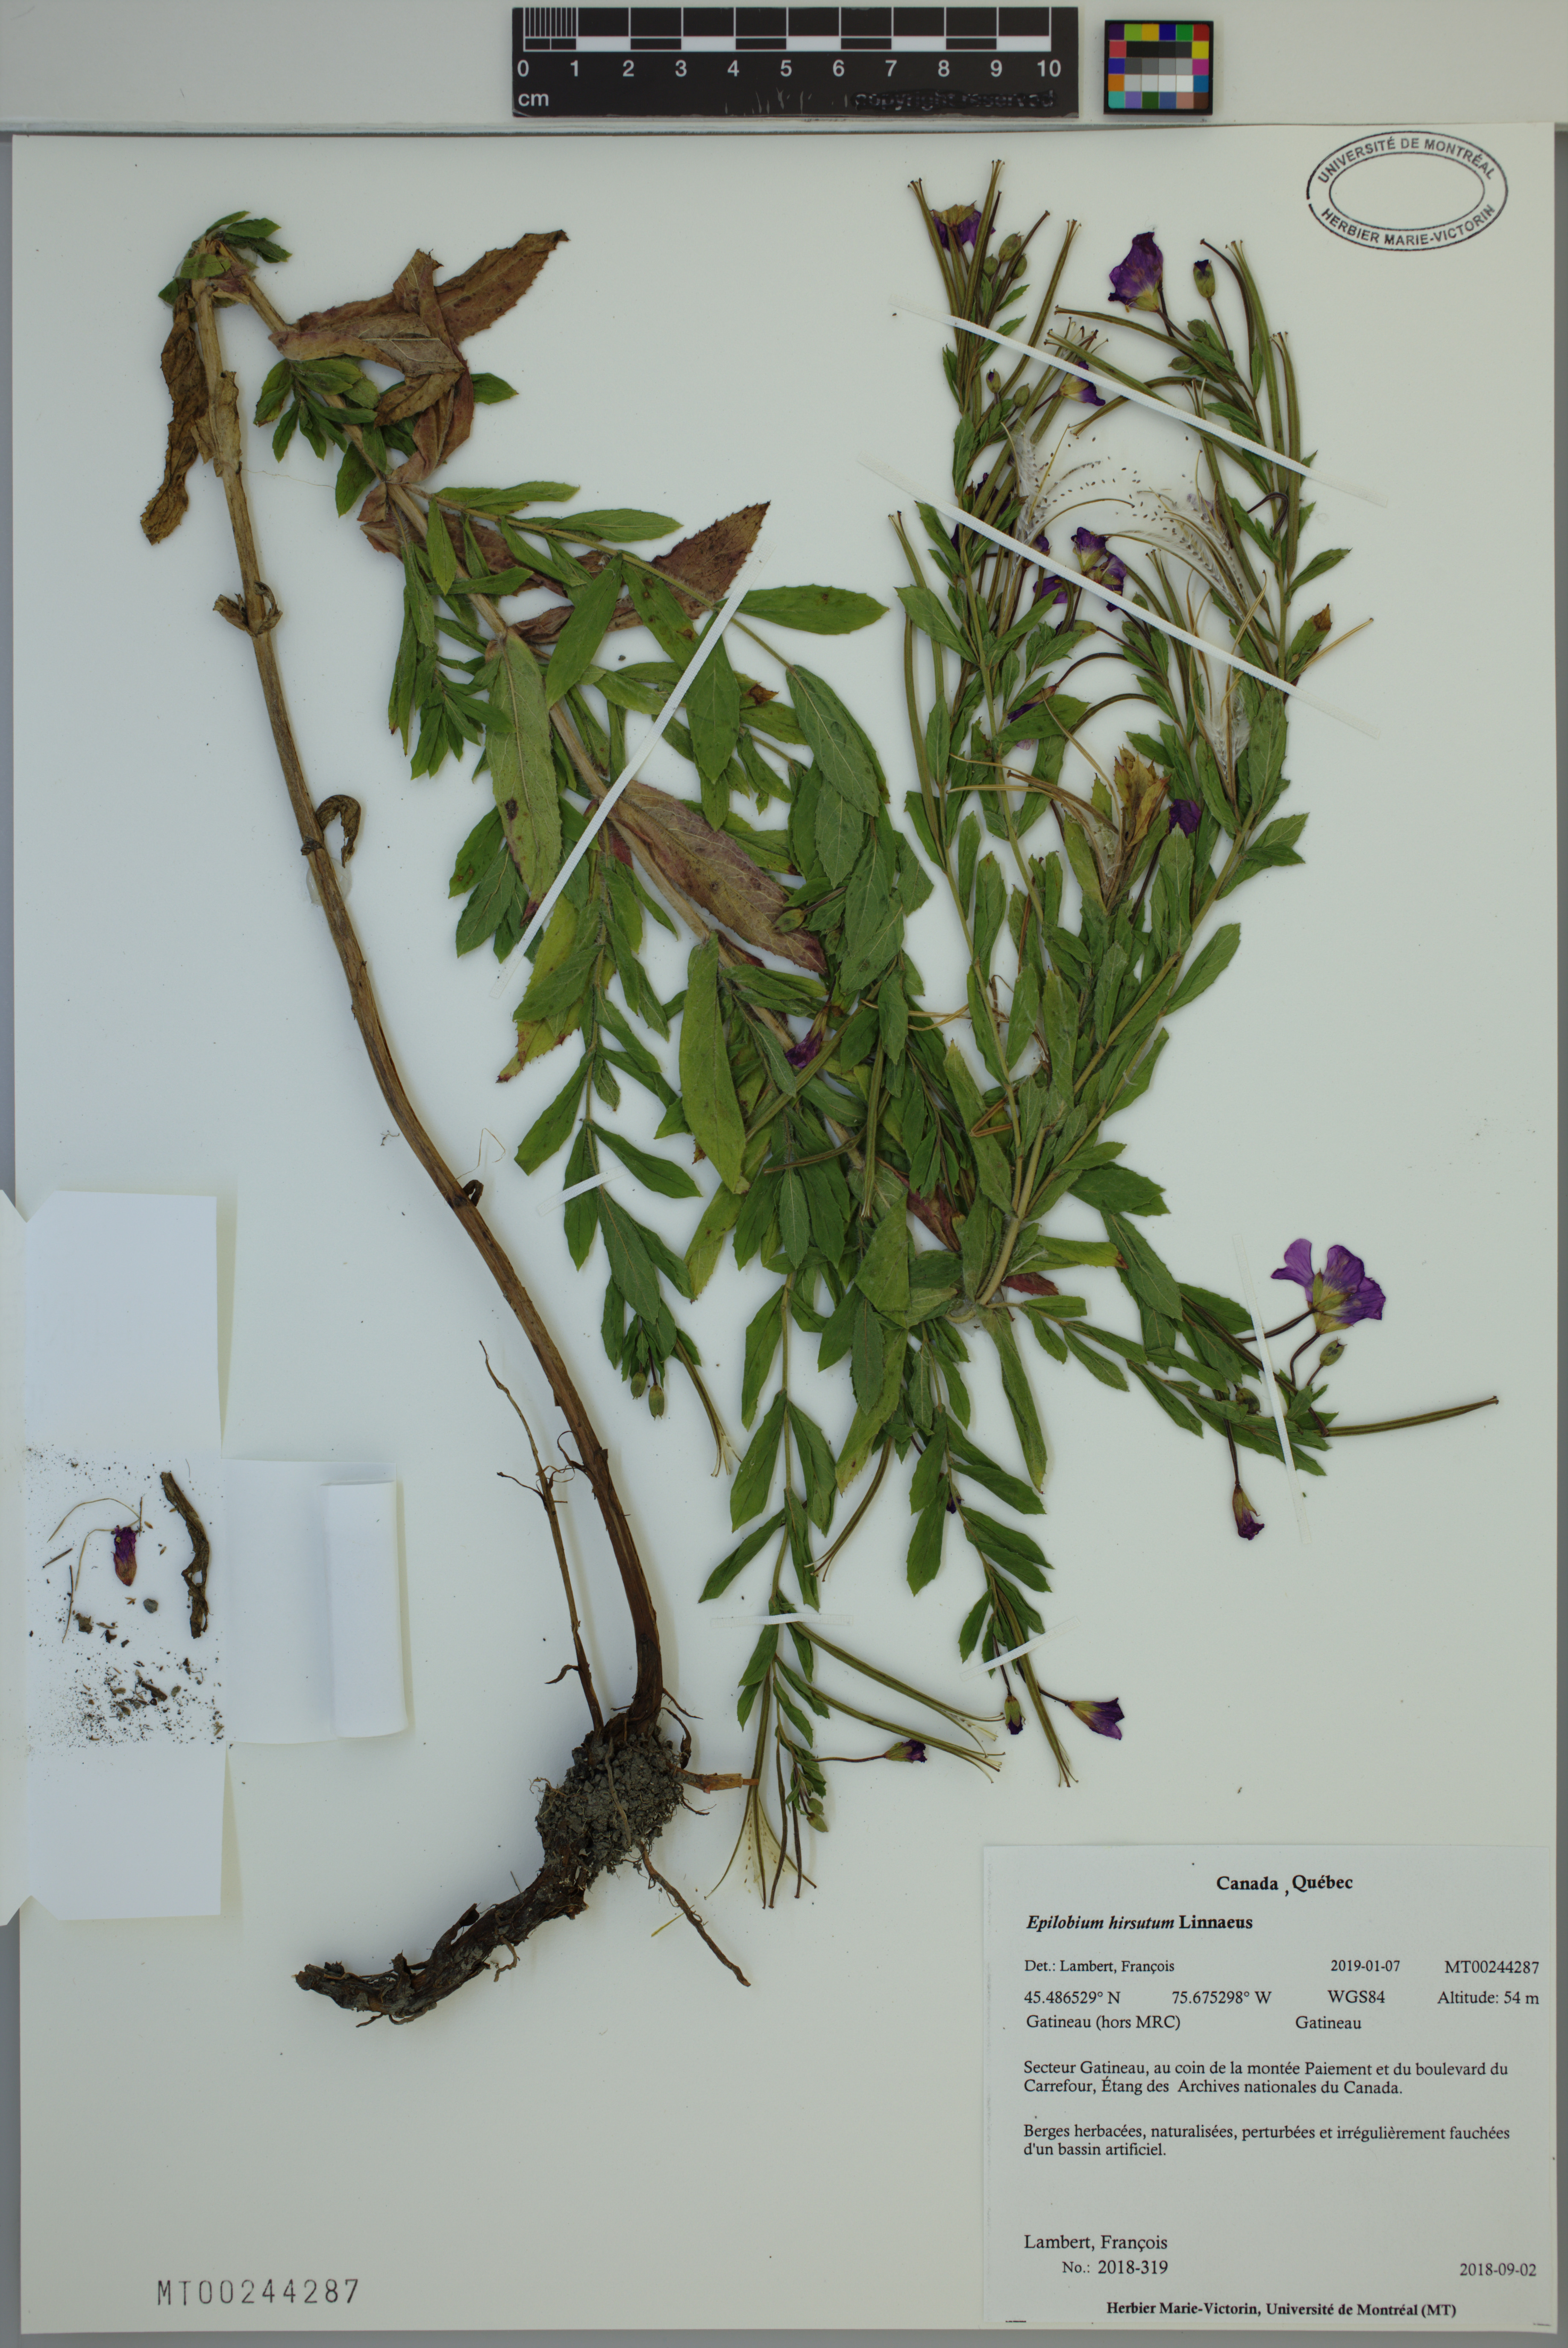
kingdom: Plantae
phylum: Tracheophyta
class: Magnoliopsida
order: Myrtales
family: Onagraceae
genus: Epilobium
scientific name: Epilobium hirsutum
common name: Great willowherb
